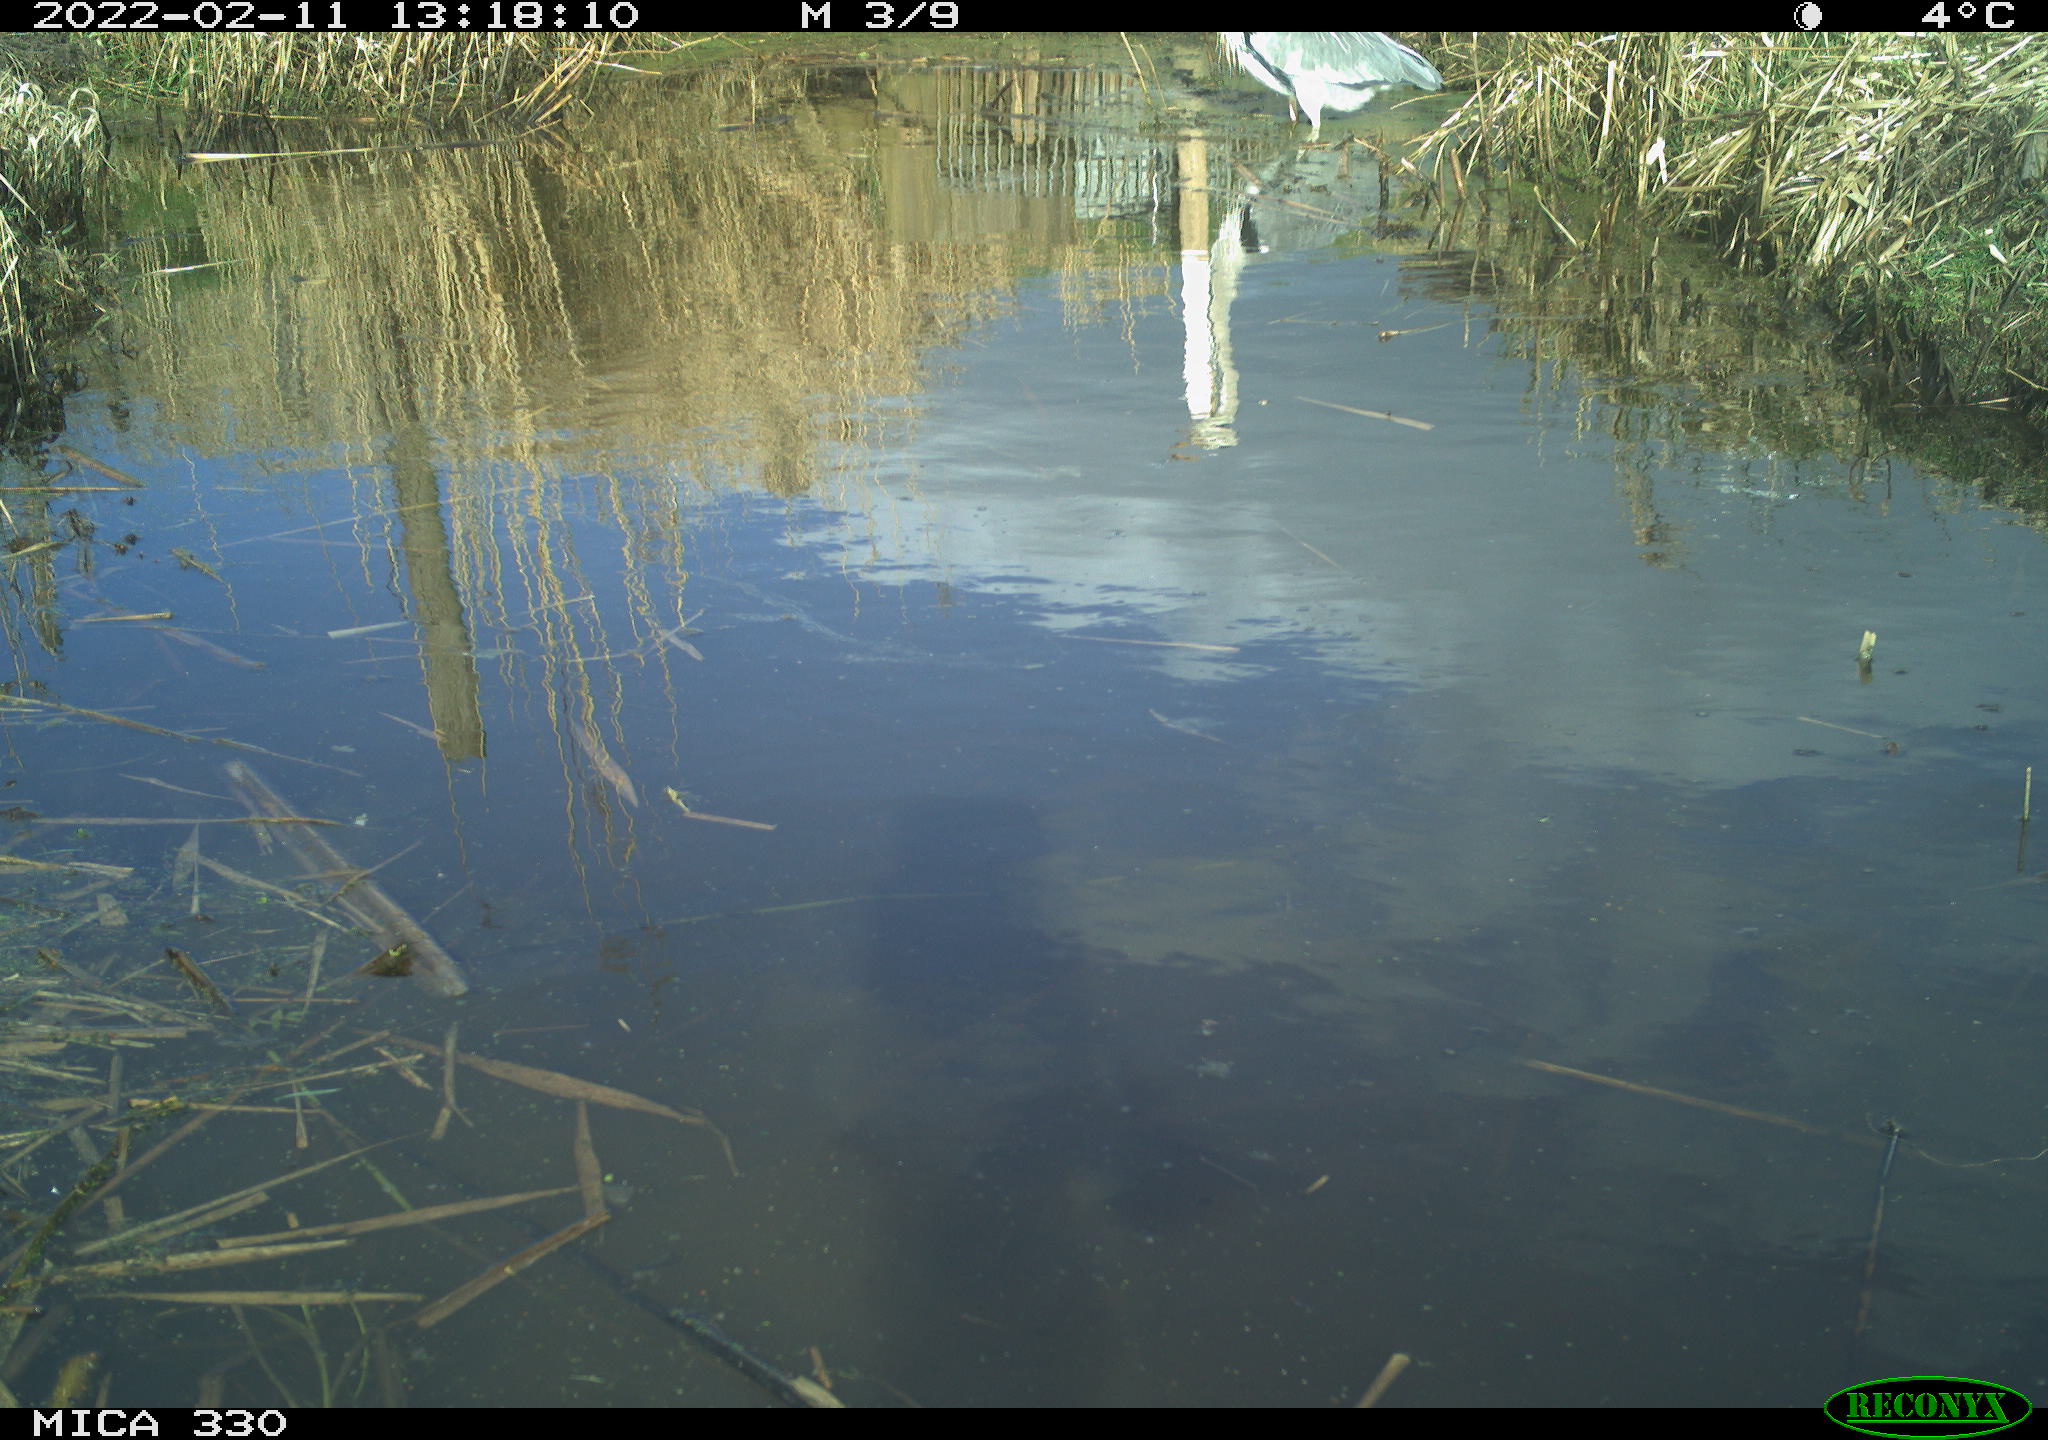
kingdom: Animalia
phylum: Chordata
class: Aves
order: Pelecaniformes
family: Ardeidae
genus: Ardea
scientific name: Ardea cinerea
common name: Grey heron
